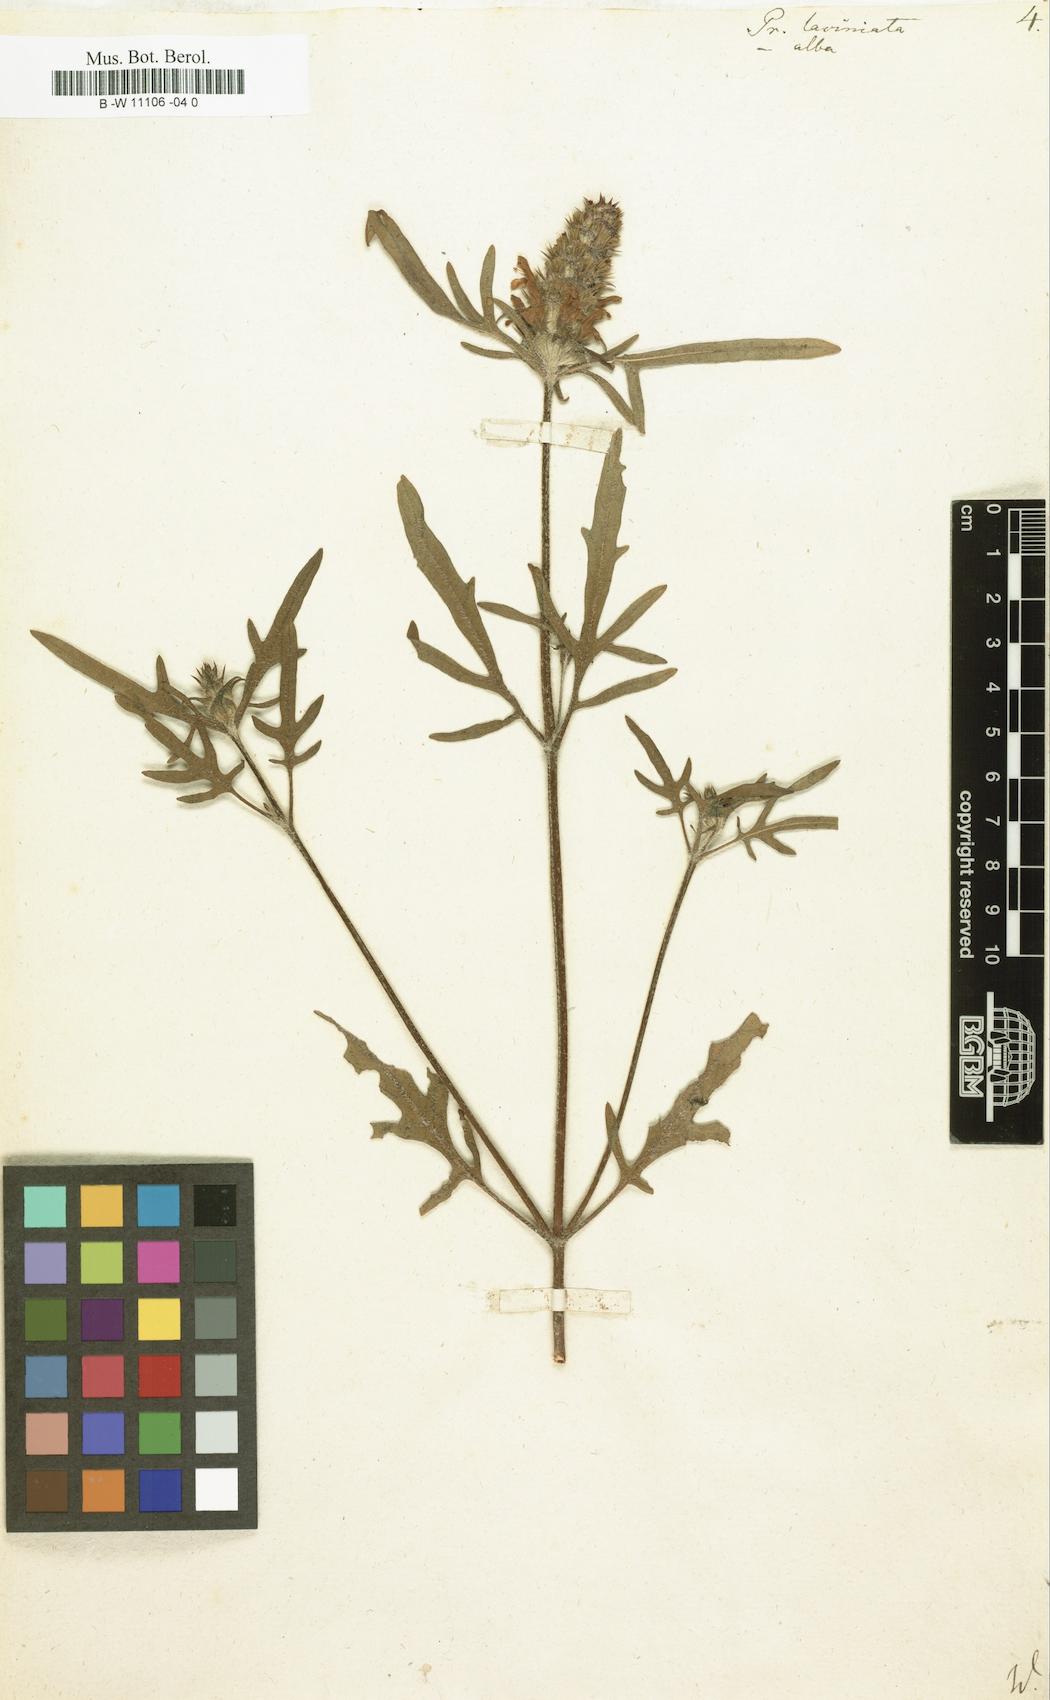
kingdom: Plantae
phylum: Tracheophyta
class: Magnoliopsida
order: Lamiales
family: Lamiaceae
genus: Prunella
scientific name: Prunella laciniata
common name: Cut-leaved selfheal
